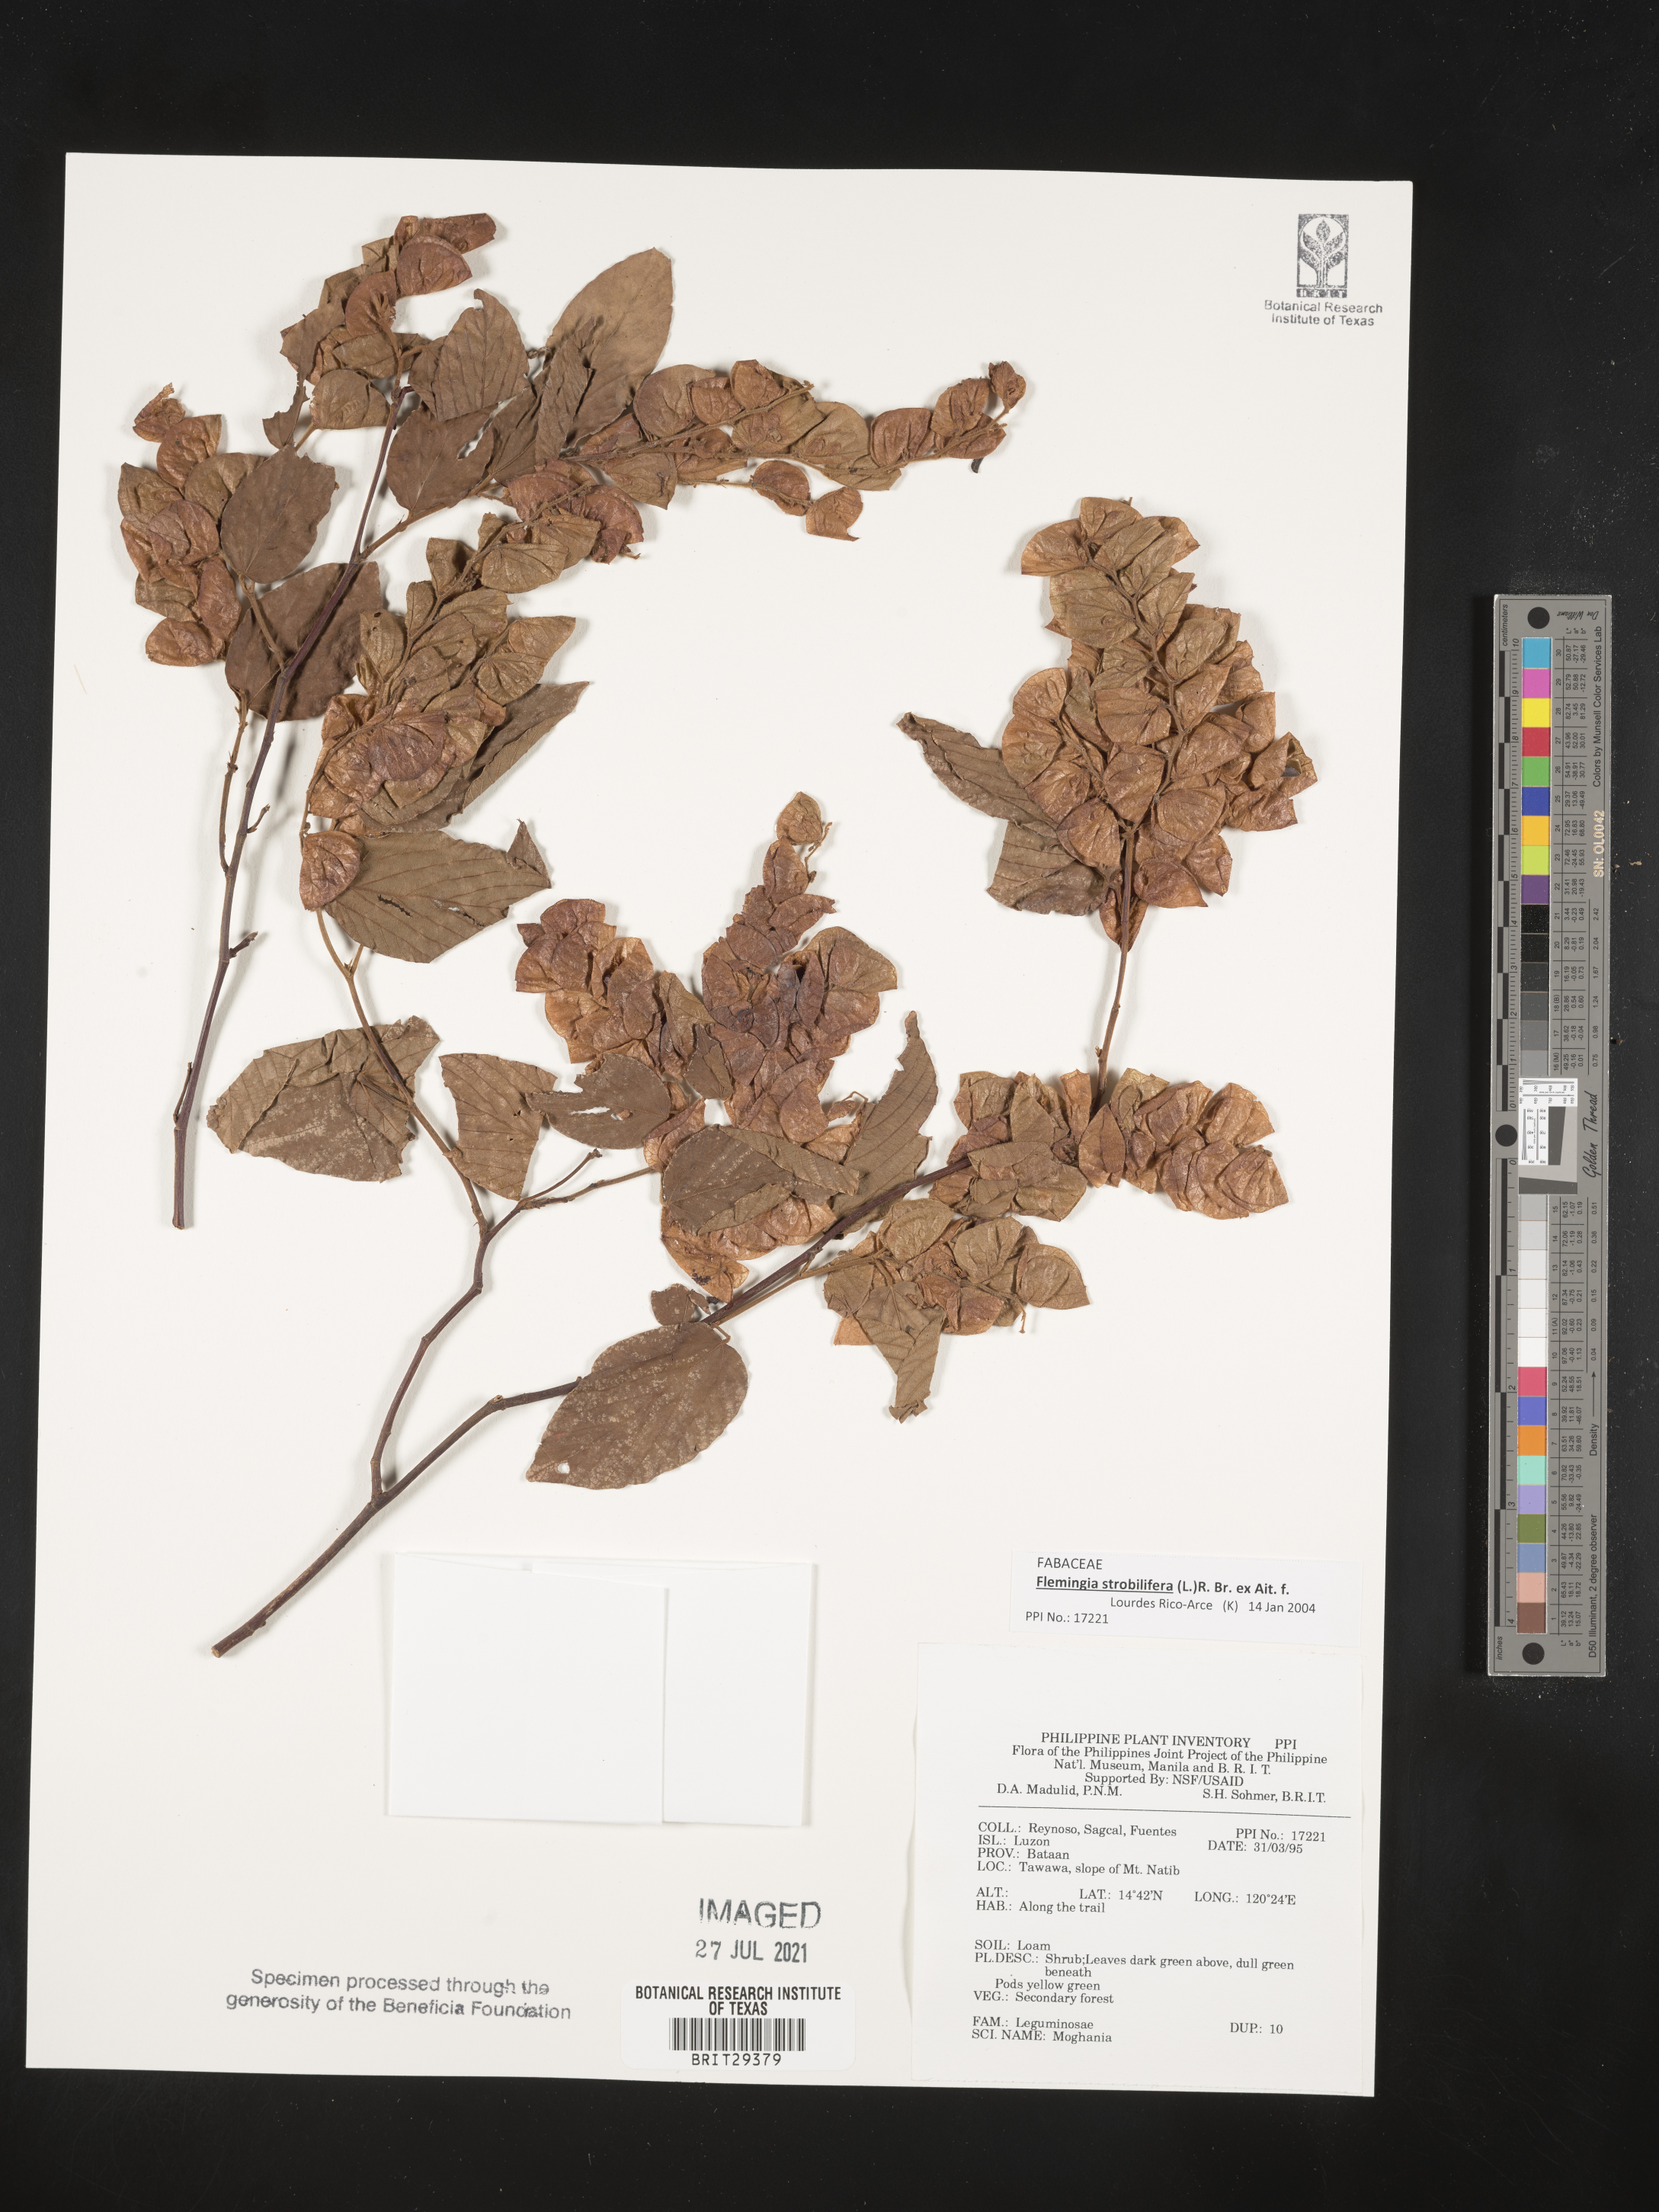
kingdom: Plantae
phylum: Tracheophyta
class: Magnoliopsida
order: Fabales
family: Fabaceae
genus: Flemingia
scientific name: Flemingia strobilifera
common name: Wild hops
